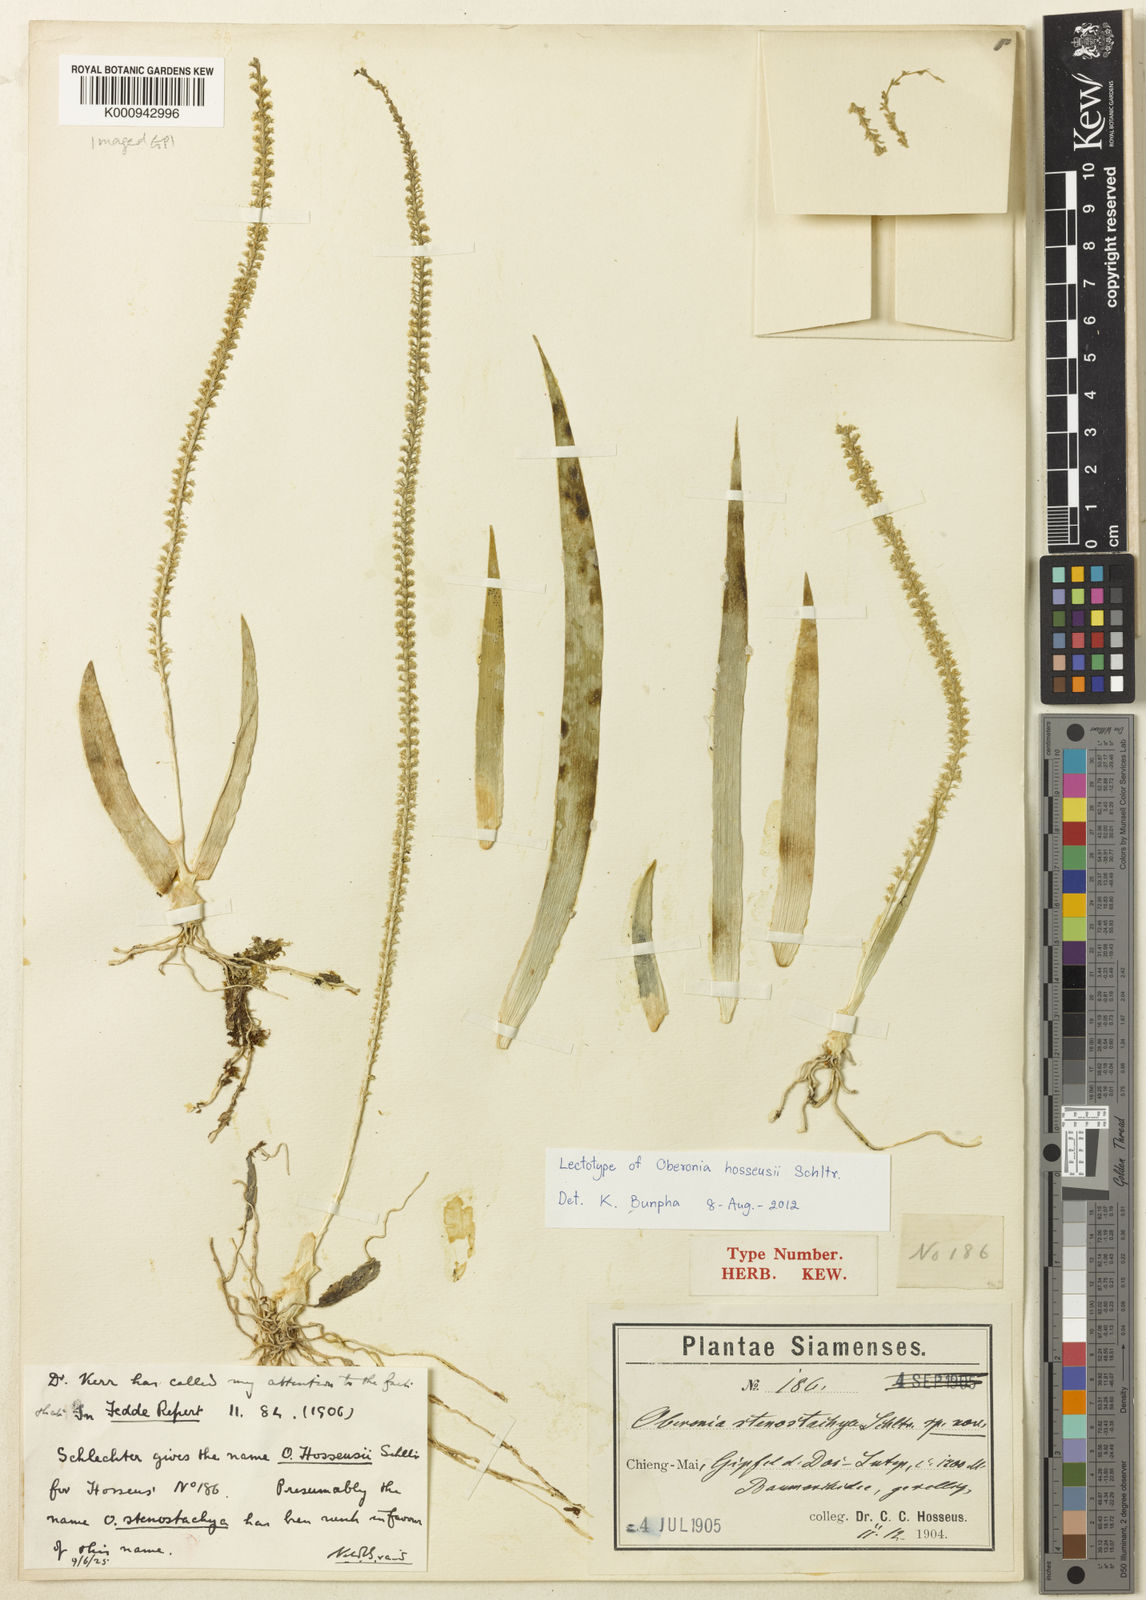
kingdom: Plantae
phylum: Tracheophyta
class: Liliopsida
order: Asparagales
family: Orchidaceae
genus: Oberonia
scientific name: Oberonia wightiana
